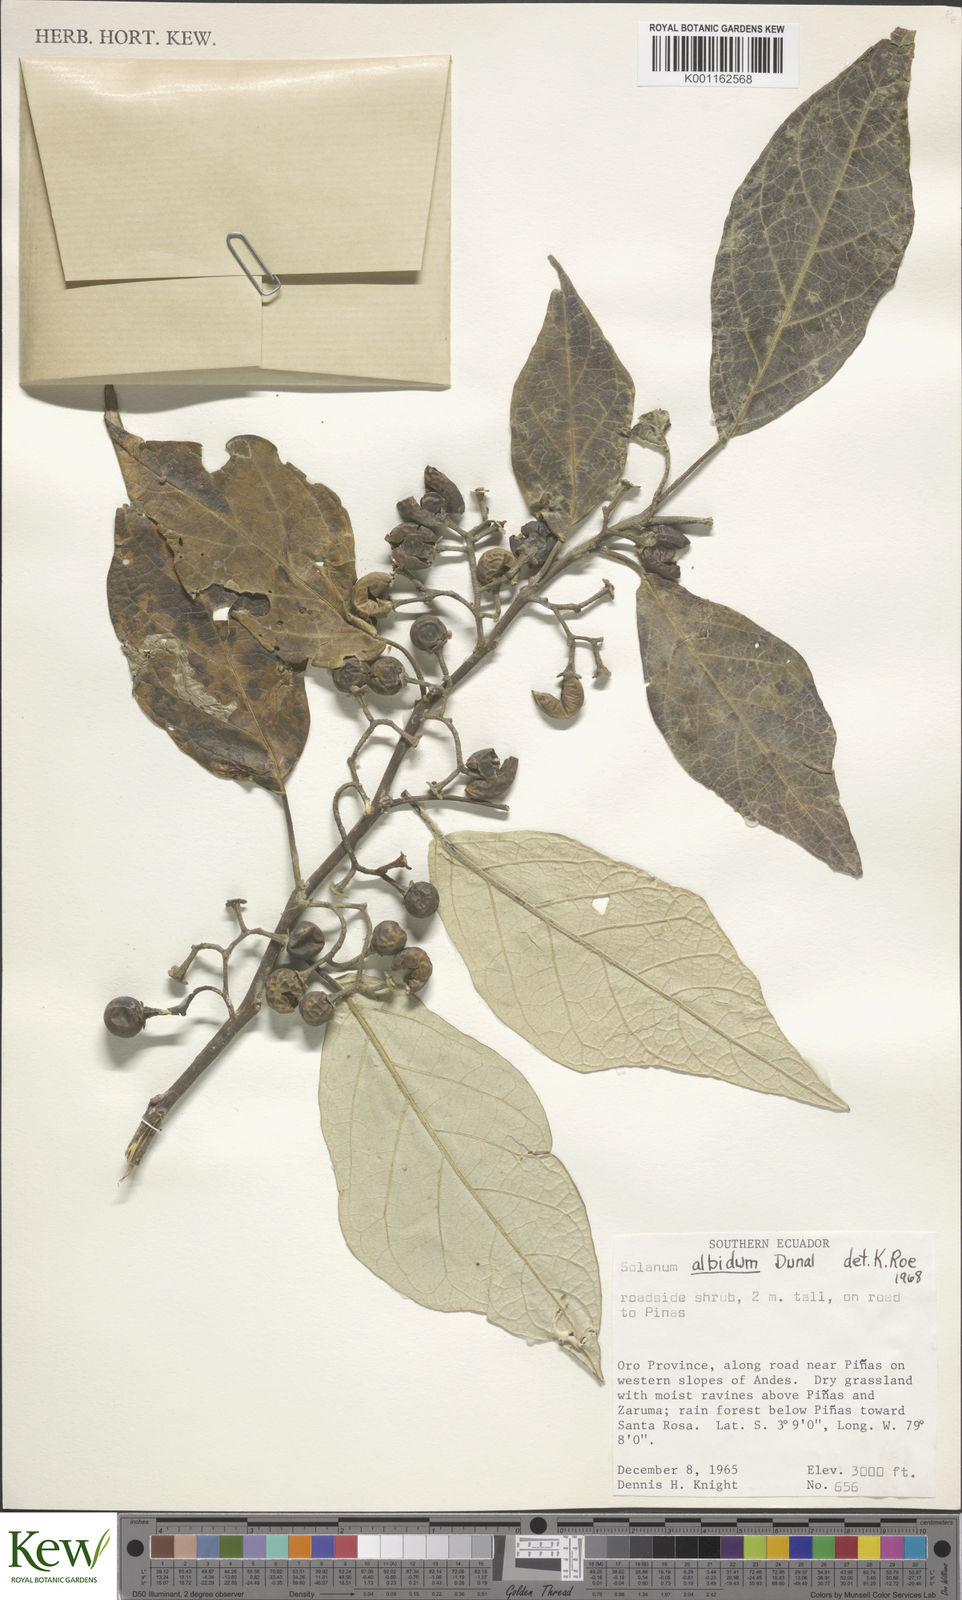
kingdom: Plantae
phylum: Tracheophyta
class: Magnoliopsida
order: Solanales
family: Solanaceae
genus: Solanum
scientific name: Solanum albidum
